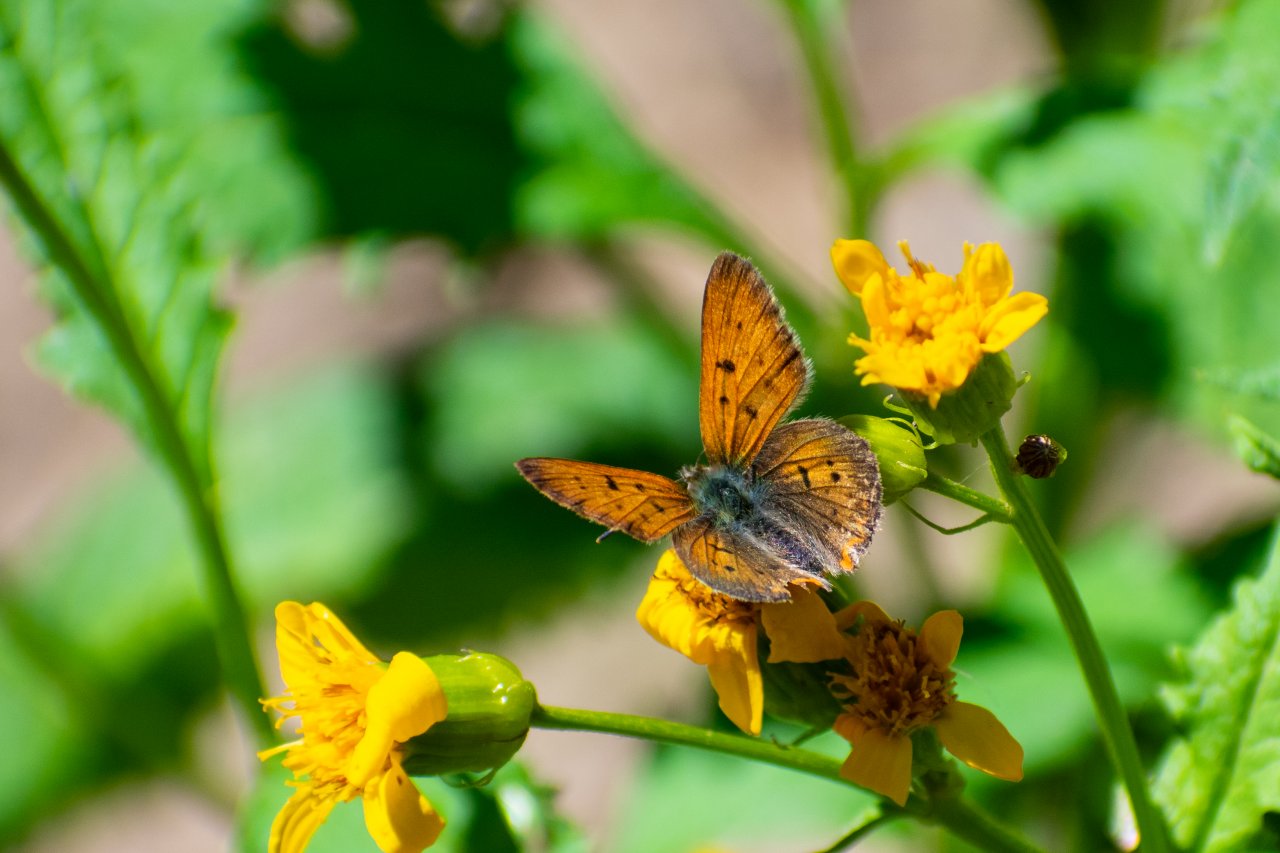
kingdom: Animalia
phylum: Arthropoda
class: Insecta
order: Lepidoptera
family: Sesiidae
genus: Sesia
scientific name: Sesia Lycaena helloides
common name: Purplish Copper
